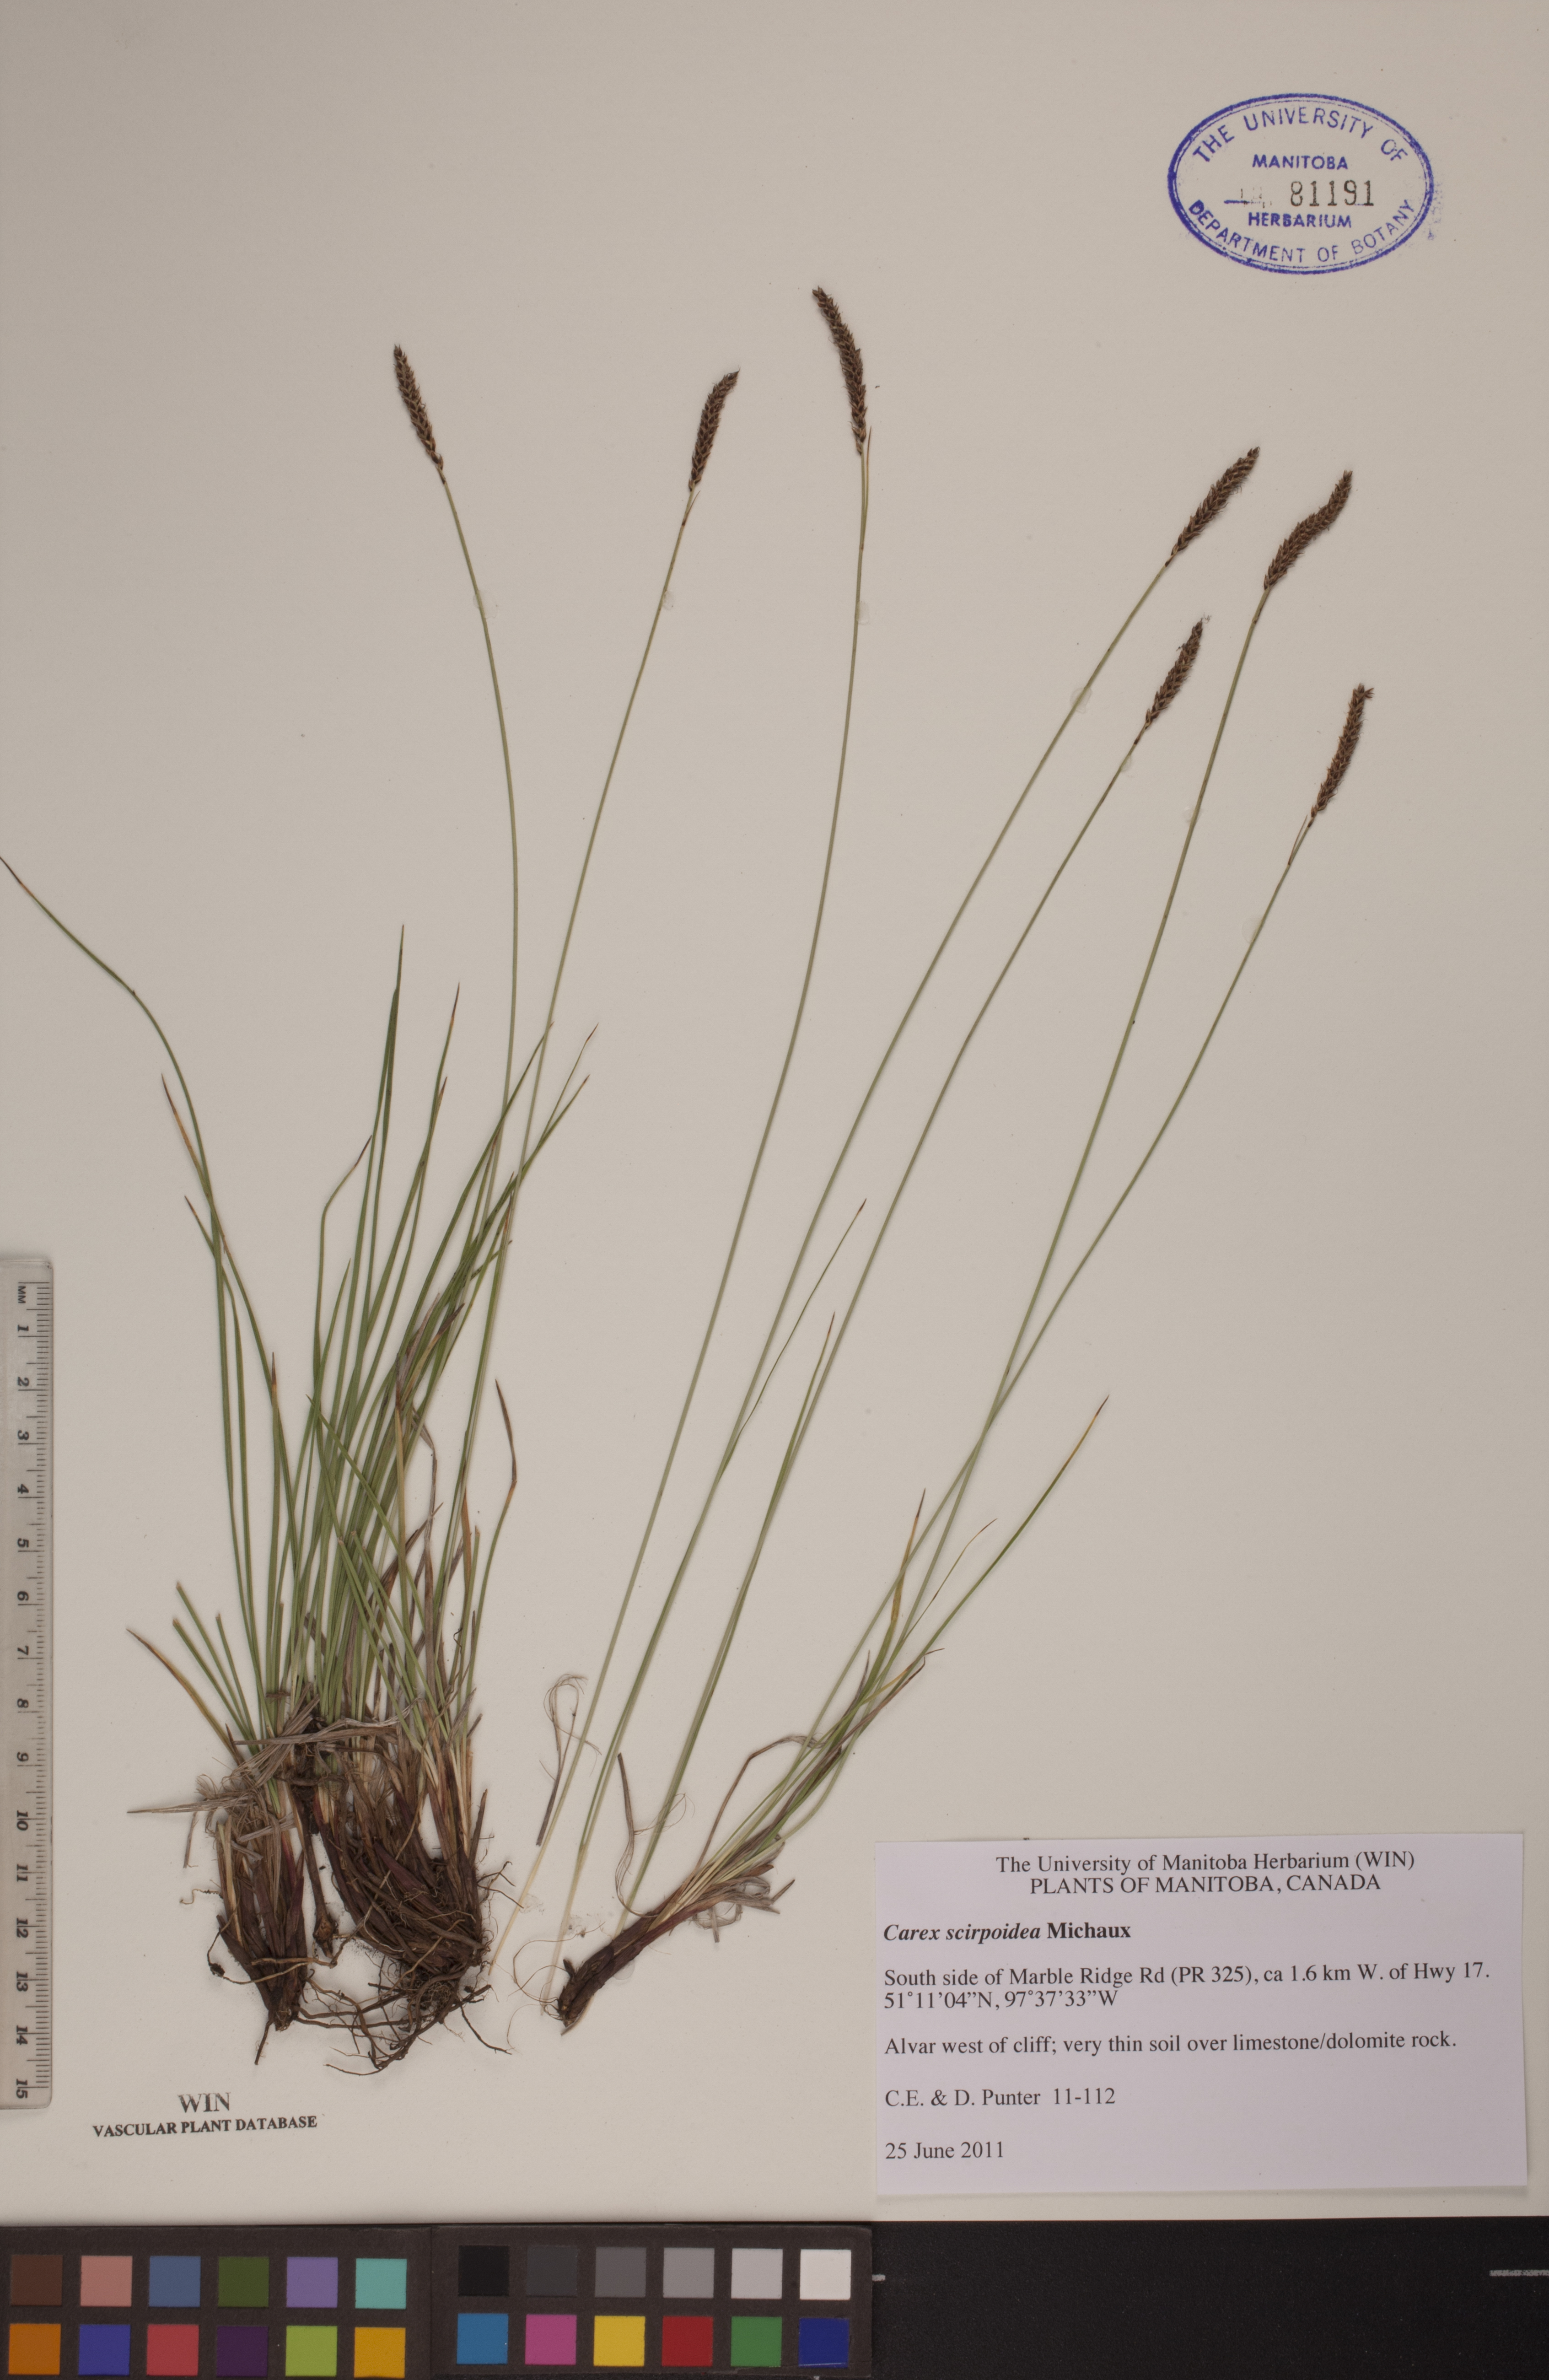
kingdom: Plantae
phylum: Tracheophyta
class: Liliopsida
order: Poales
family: Cyperaceae
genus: Carex
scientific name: Carex scirpoidea
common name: Canada single-spike sedge
